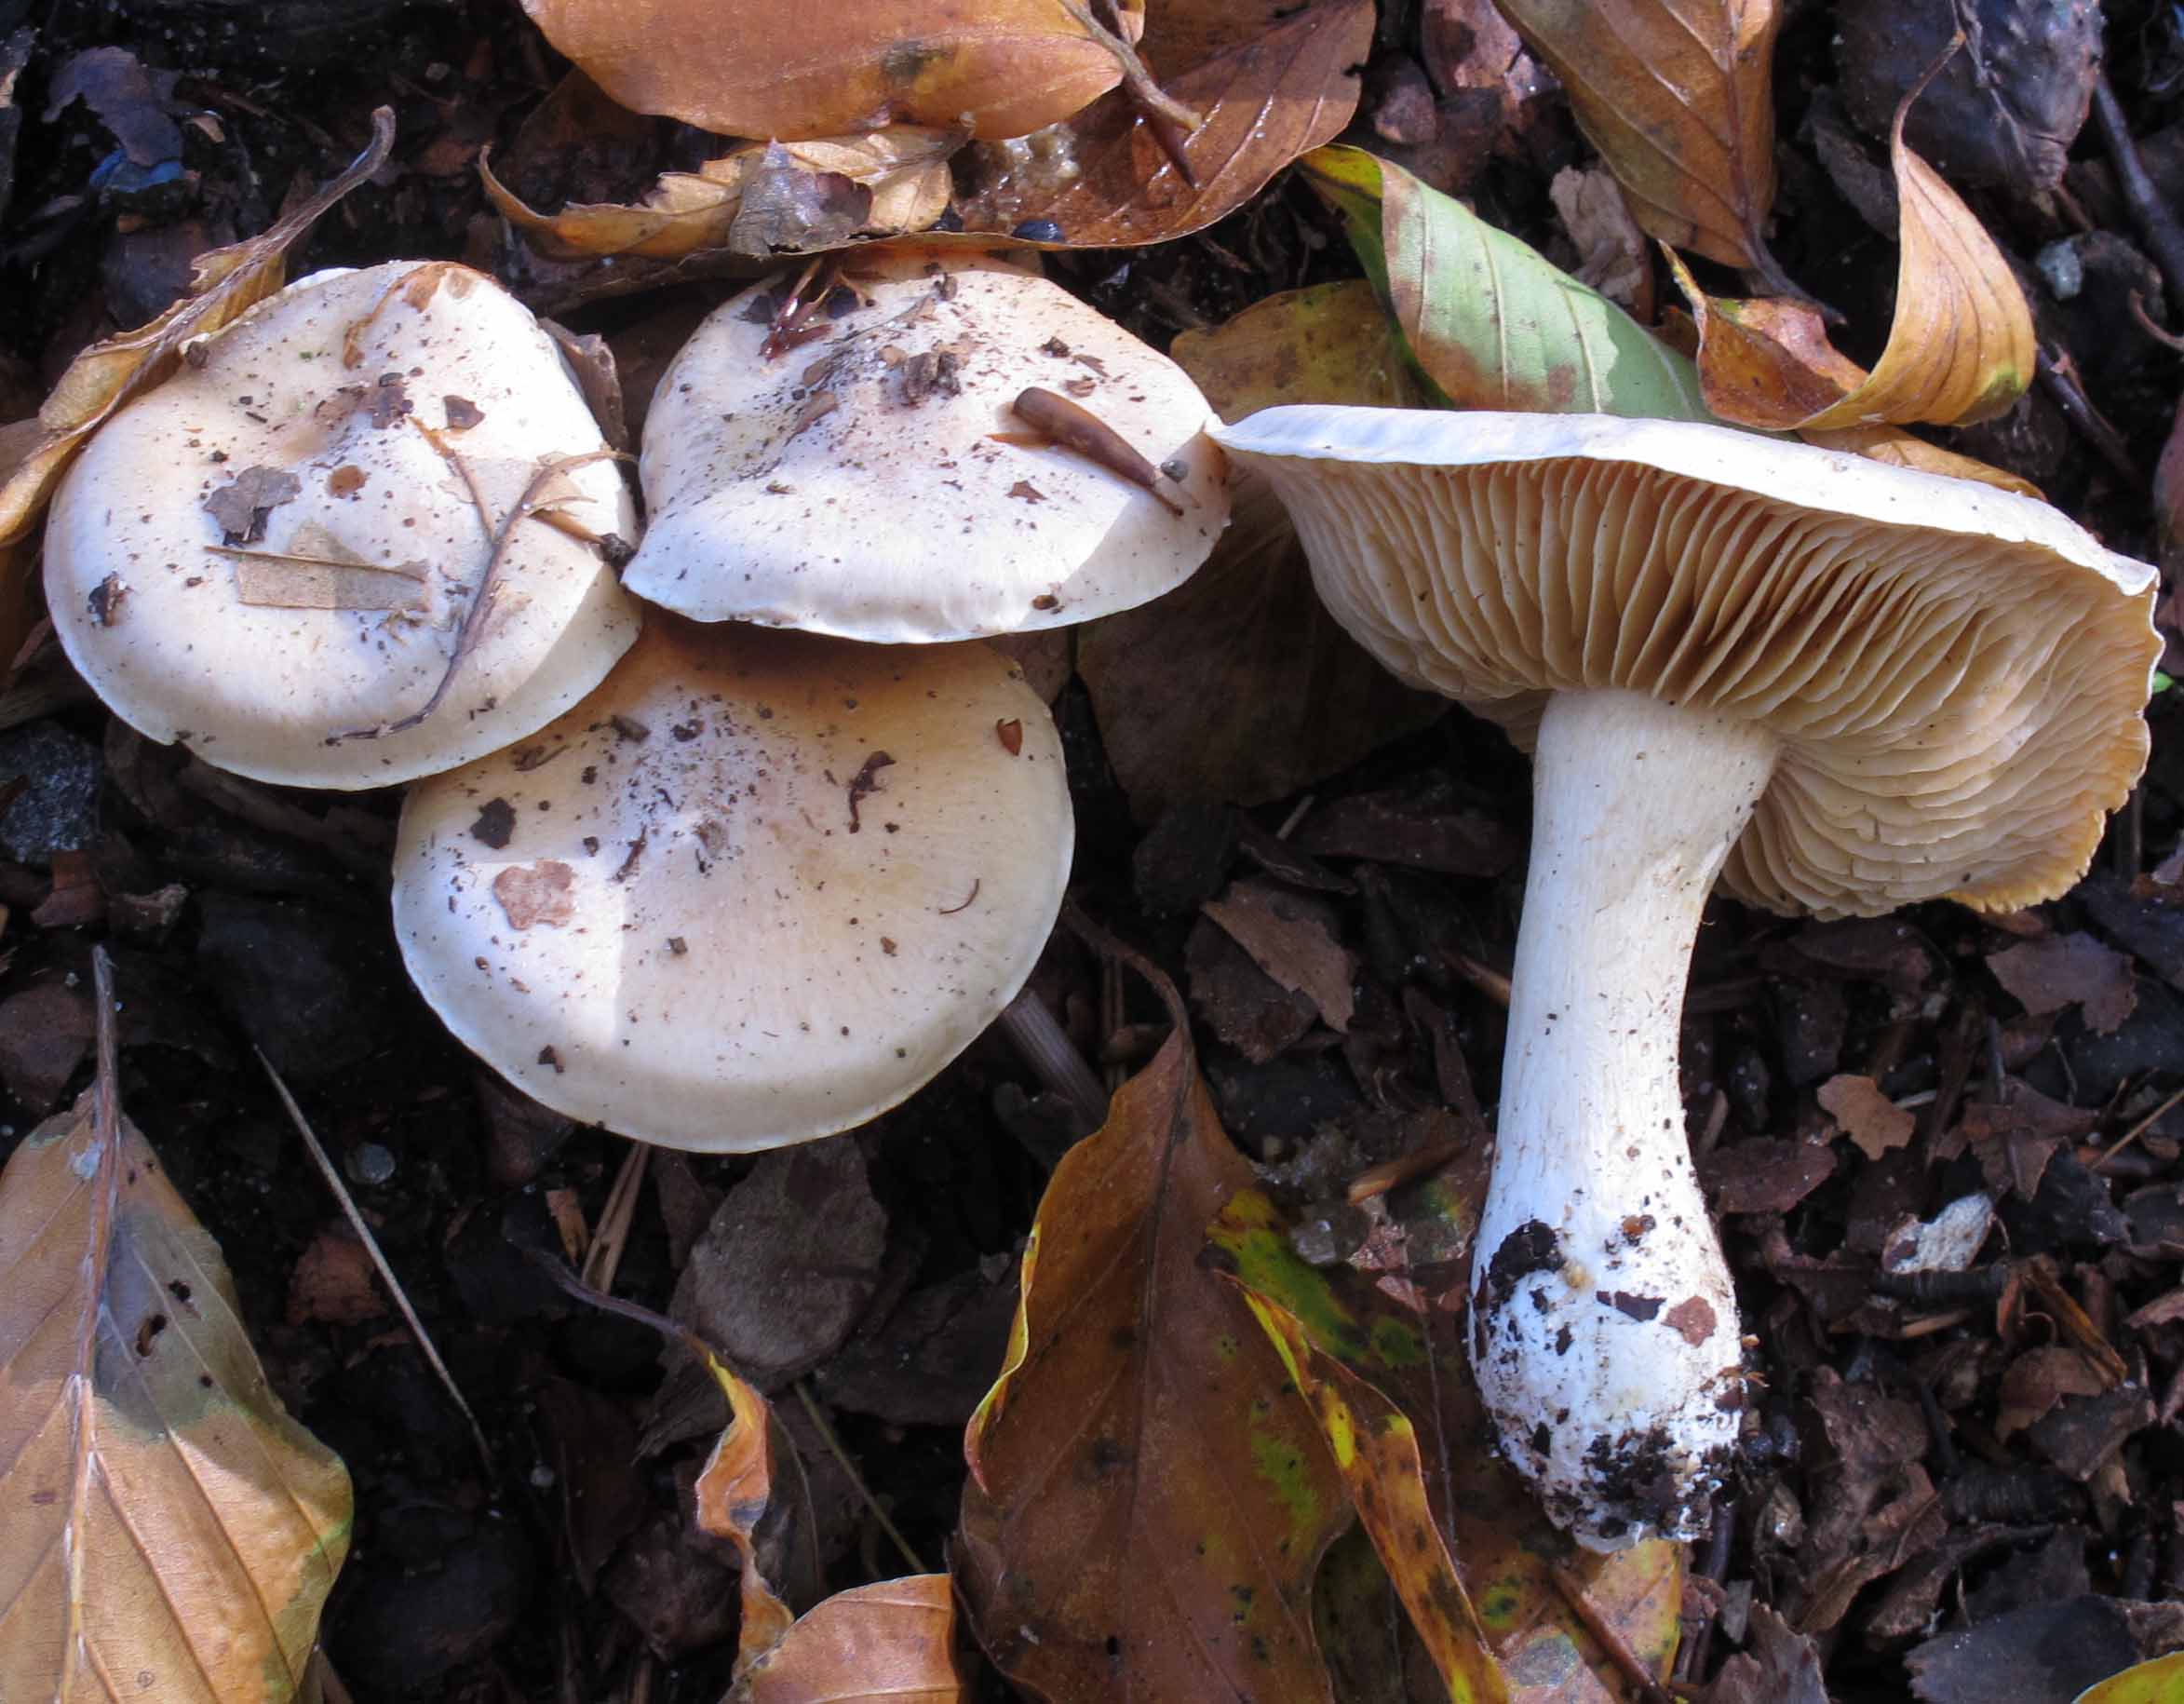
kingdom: Fungi
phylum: Basidiomycota
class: Agaricomycetes
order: Agaricales
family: Cortinariaceae
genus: Thaxterogaster
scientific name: Thaxterogaster barbatus
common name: elfenbens-slørhat
